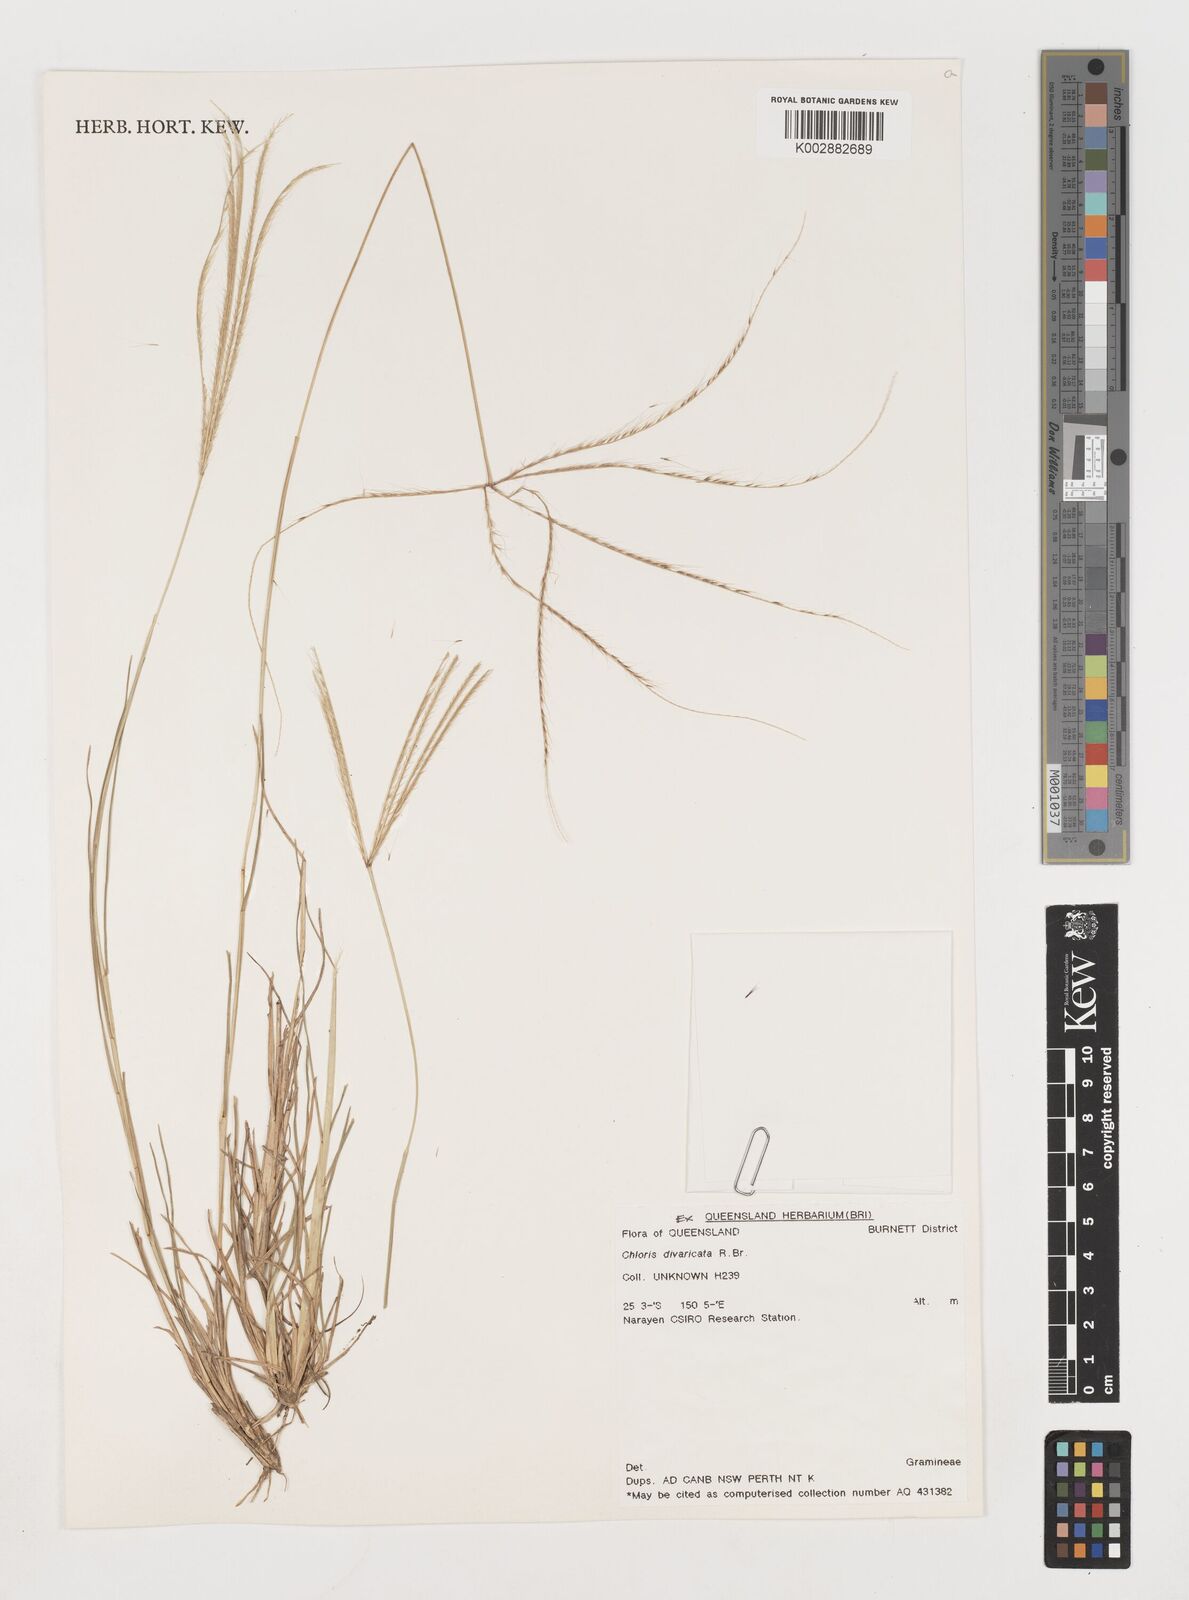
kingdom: Plantae
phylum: Tracheophyta
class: Liliopsida
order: Poales
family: Poaceae
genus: Chloris
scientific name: Chloris divaricata
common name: Spreading windmill grass
